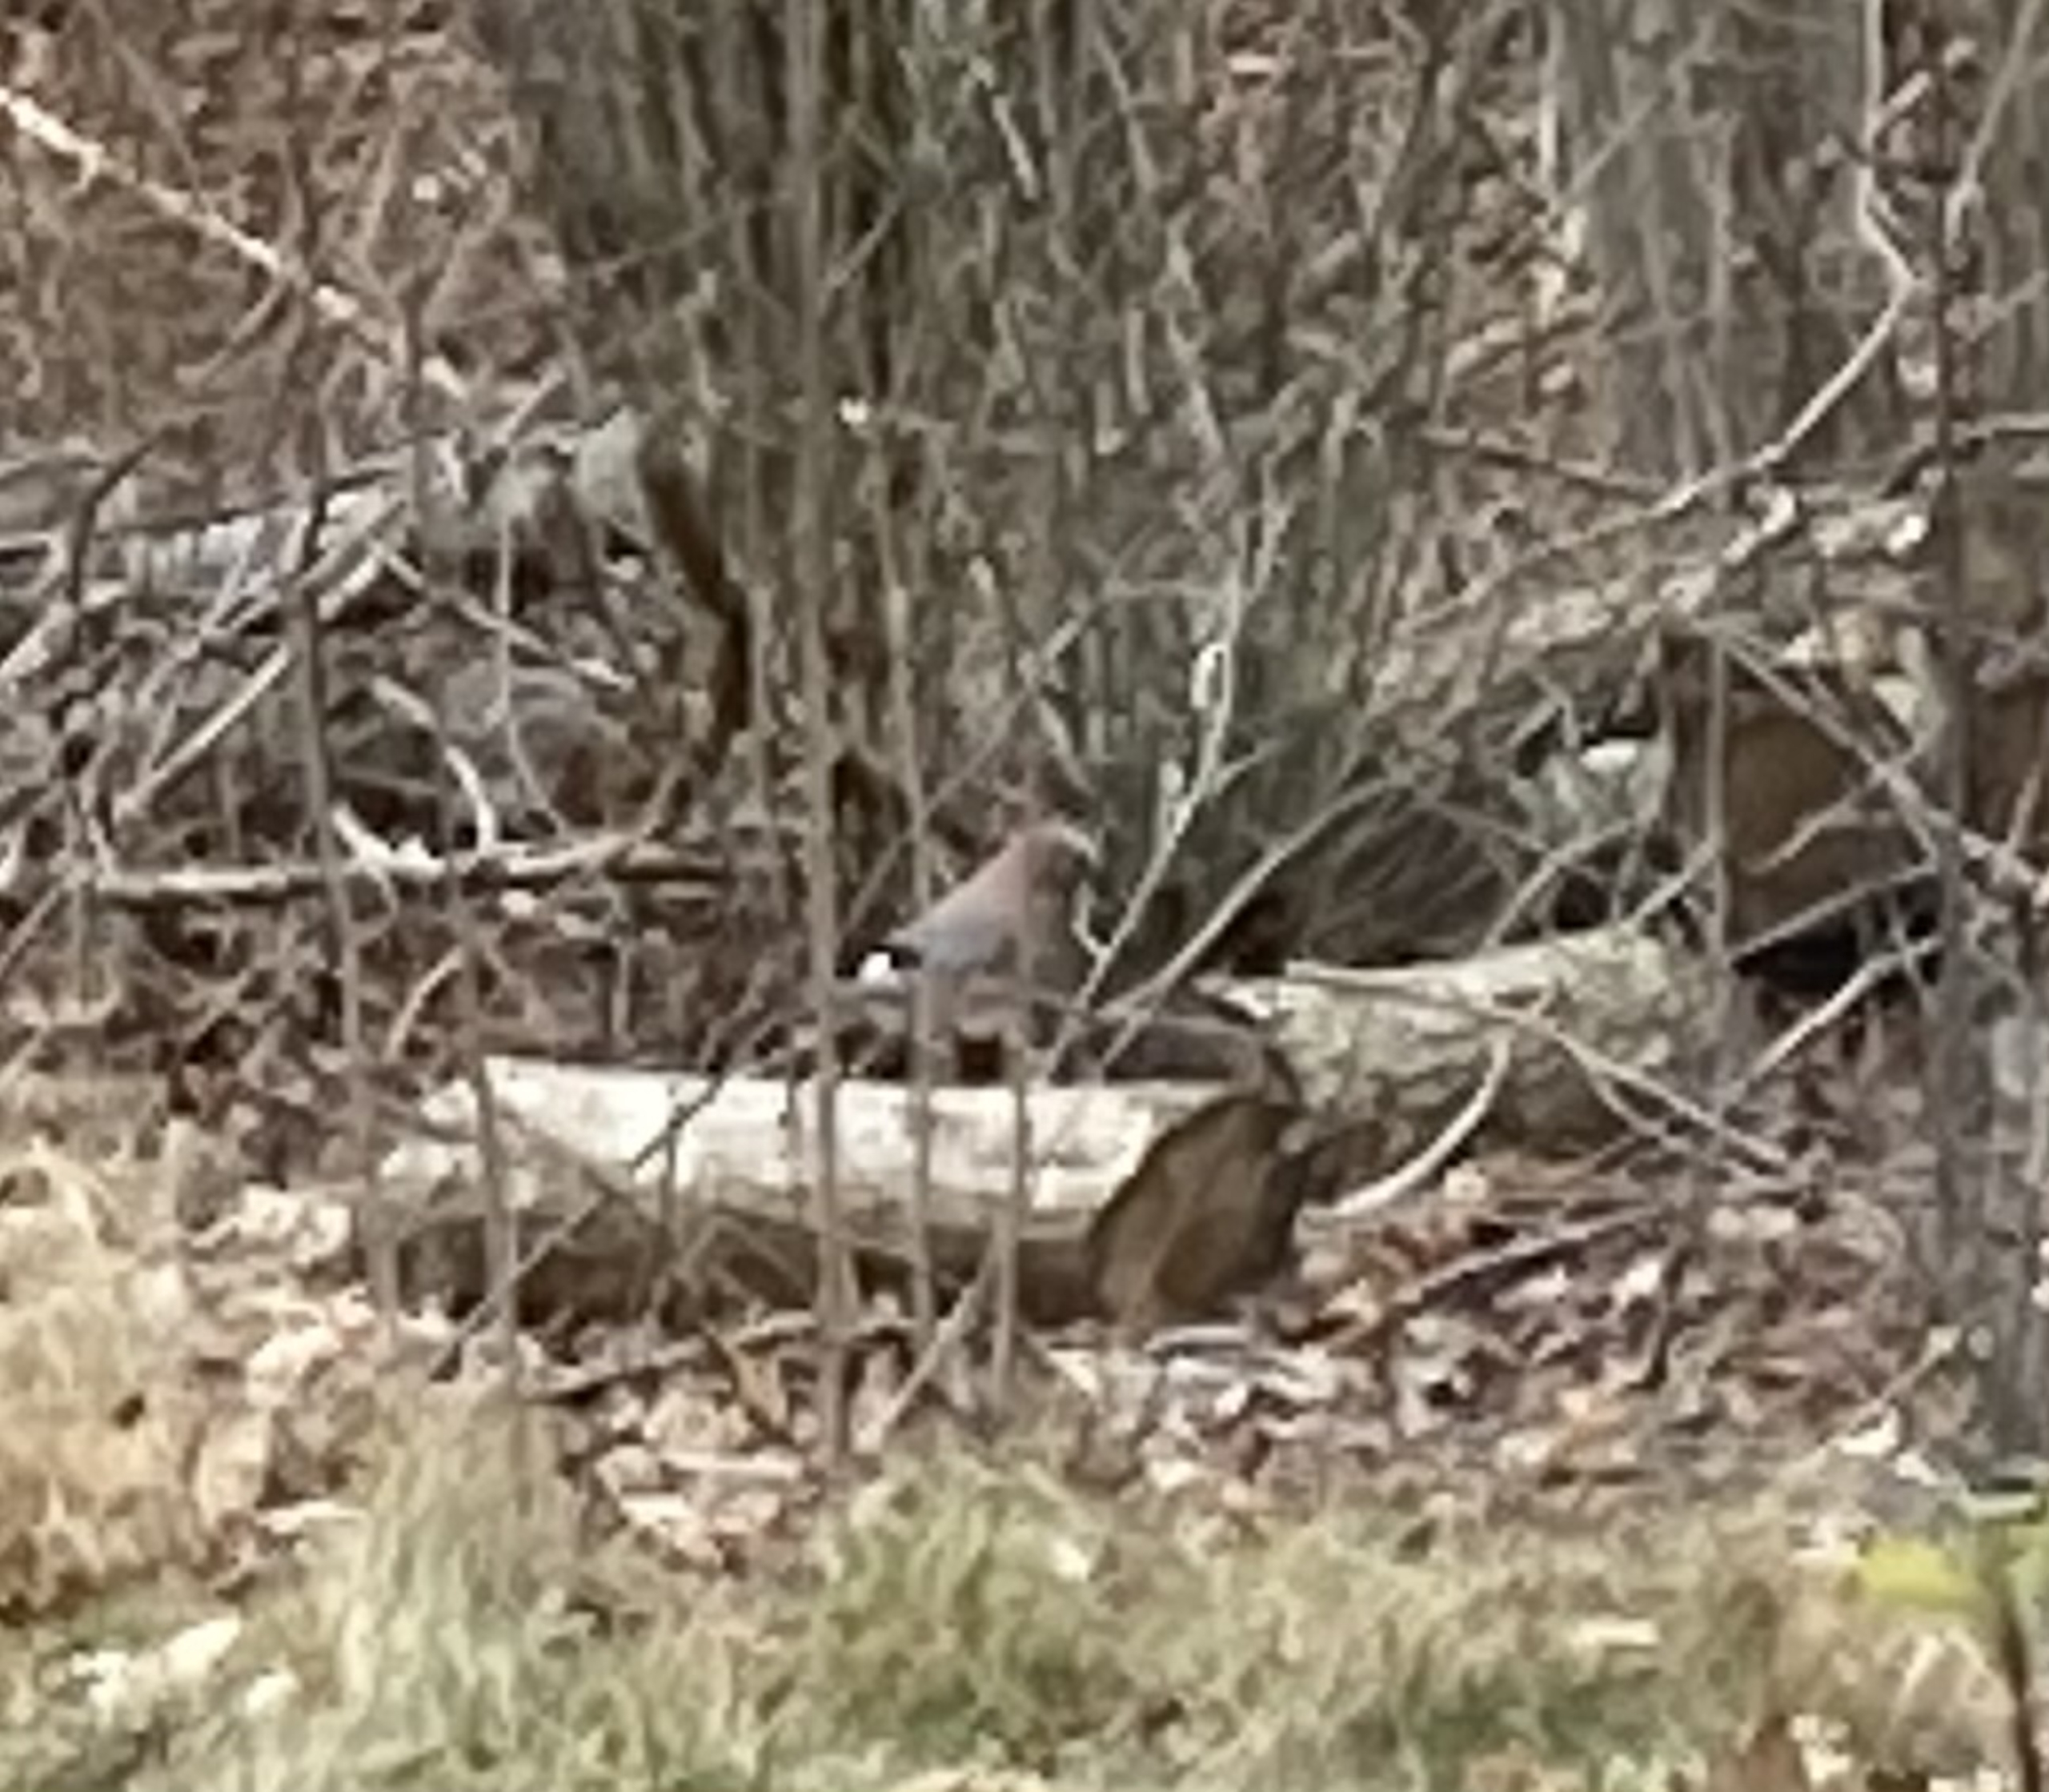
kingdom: Animalia
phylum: Chordata
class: Aves
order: Passeriformes
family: Corvidae
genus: Garrulus
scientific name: Garrulus glandarius
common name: Skovskade
